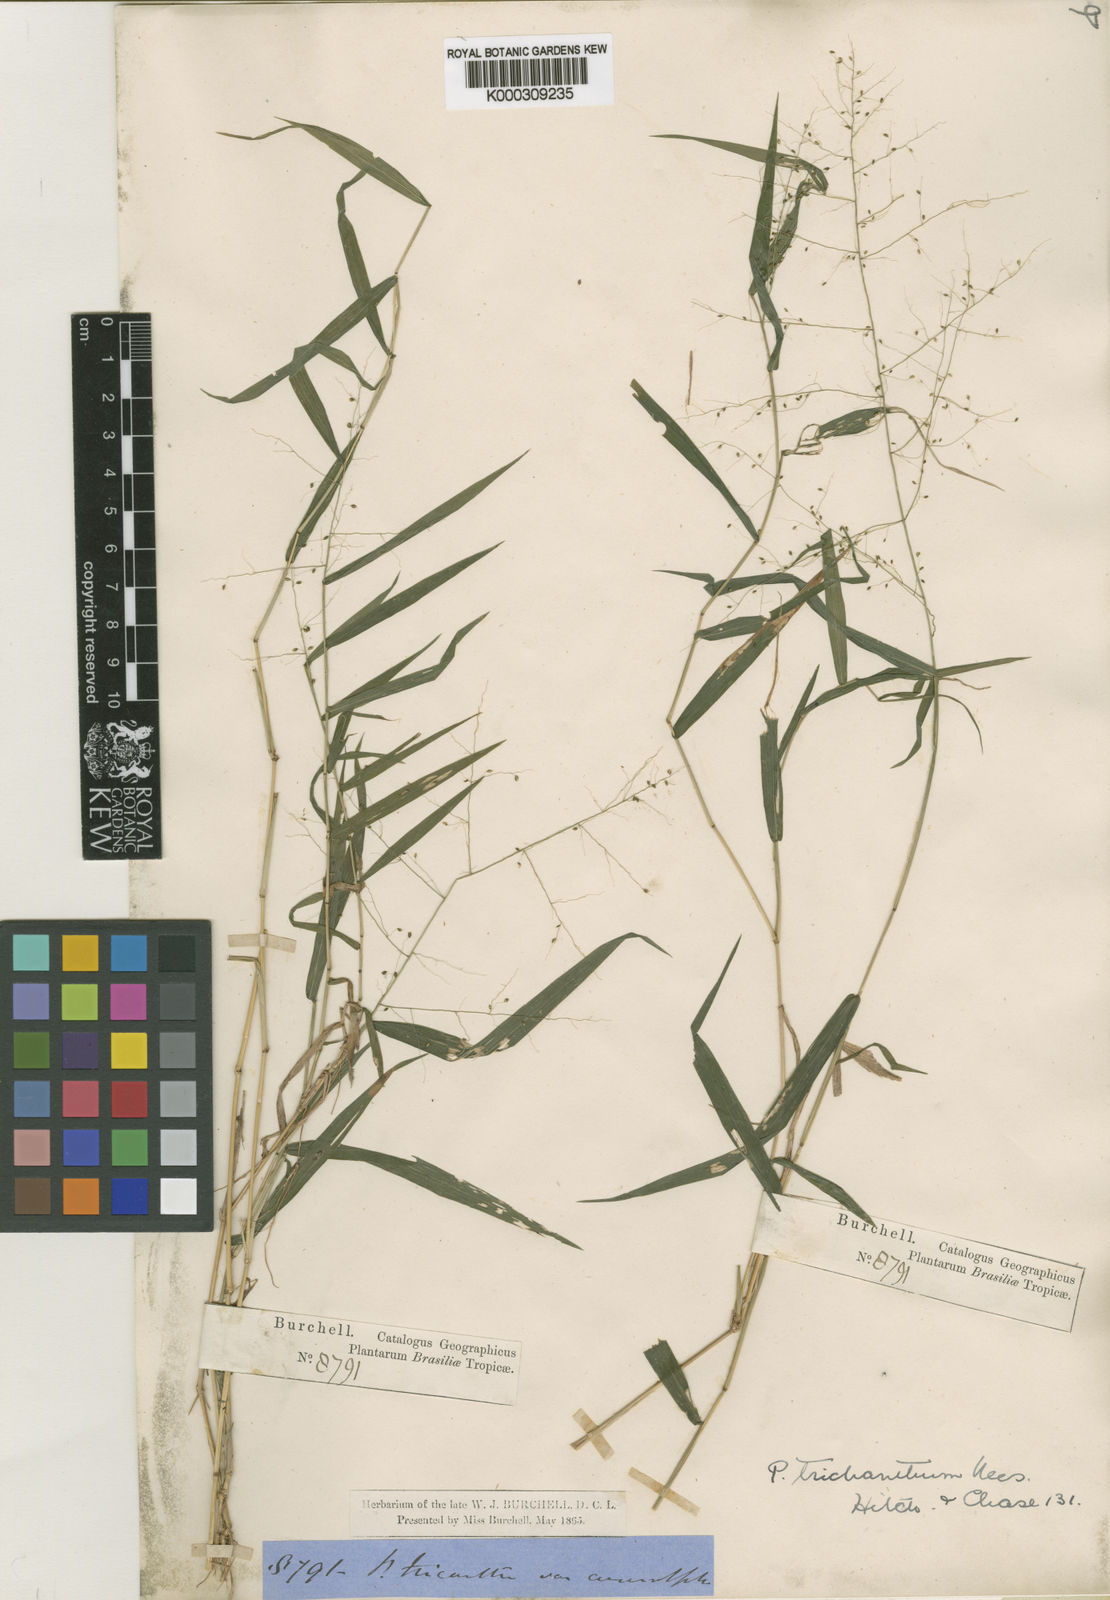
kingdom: Plantae
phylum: Tracheophyta
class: Liliopsida
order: Poales
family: Poaceae
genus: Panicum
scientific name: Panicum trichanthum
